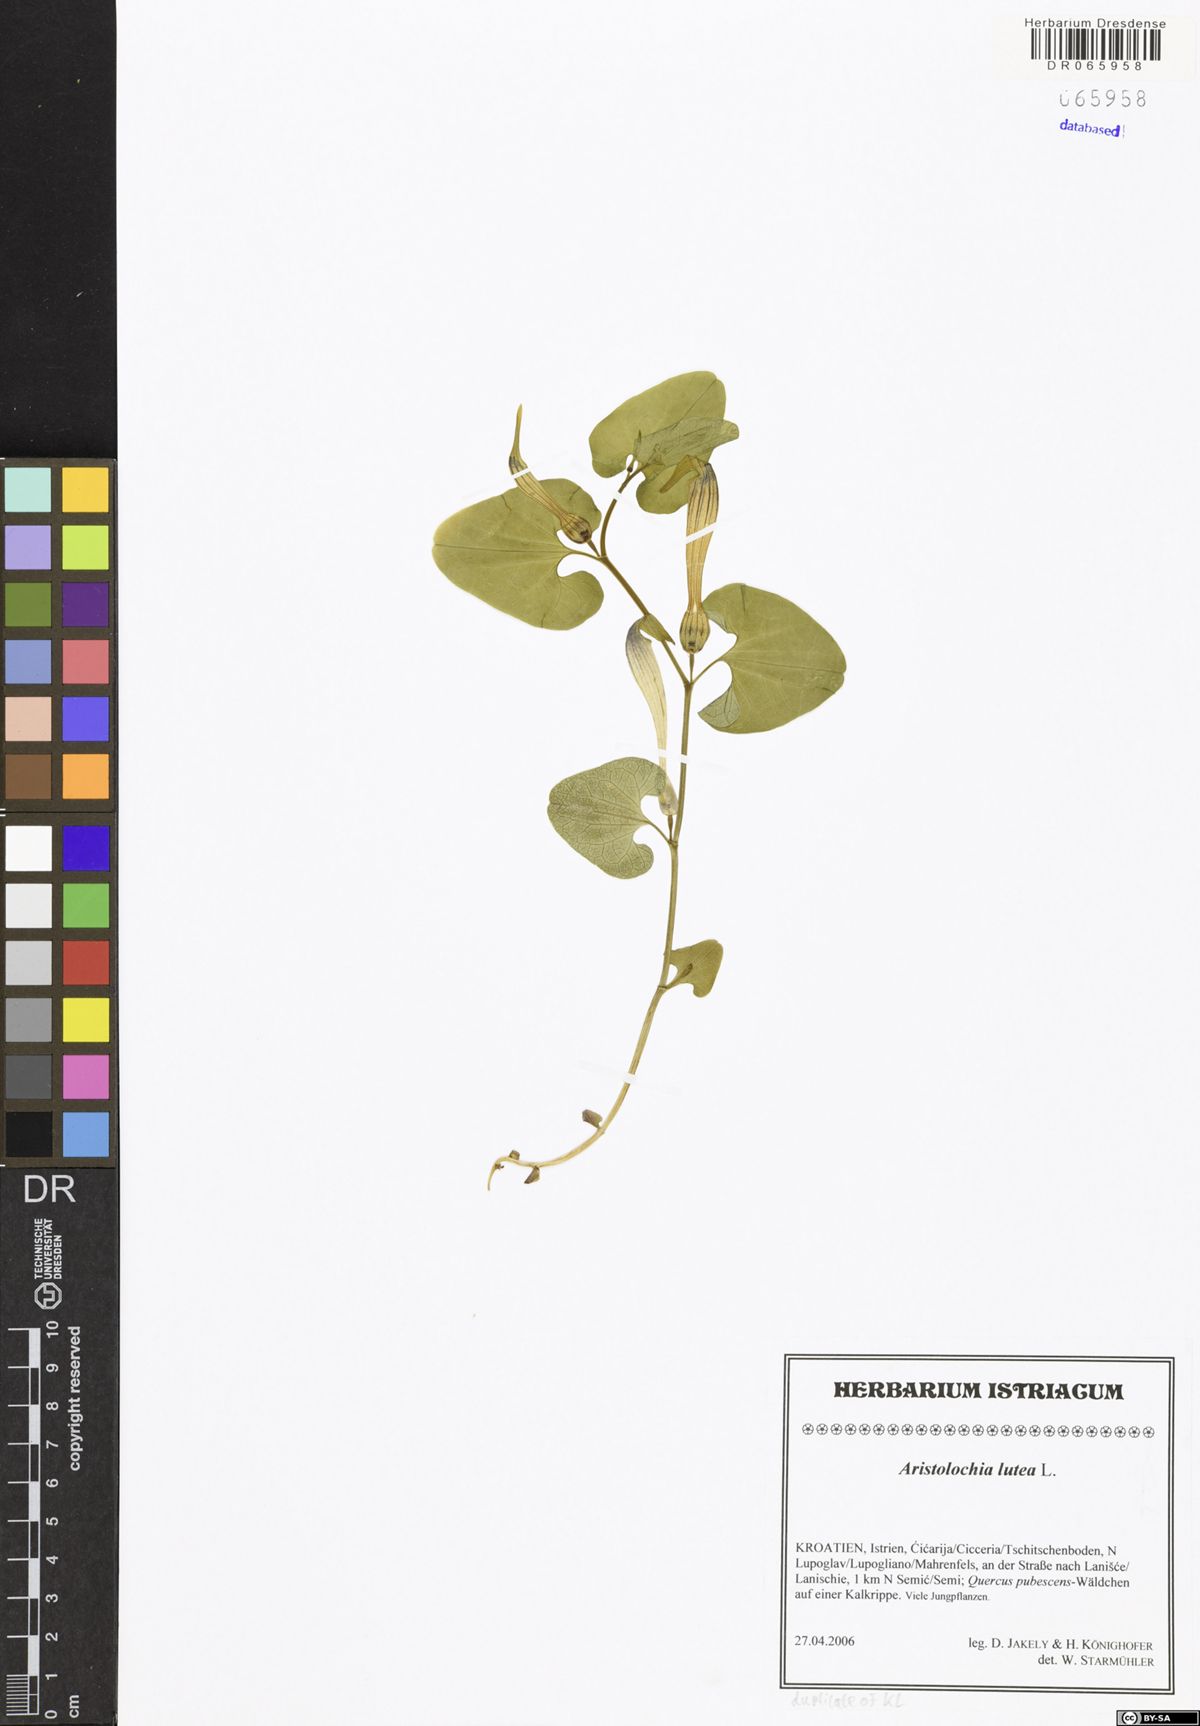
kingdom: Plantae
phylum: Tracheophyta
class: Magnoliopsida
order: Piperales
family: Aristolochiaceae
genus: Aristolochia
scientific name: Aristolochia lutea
